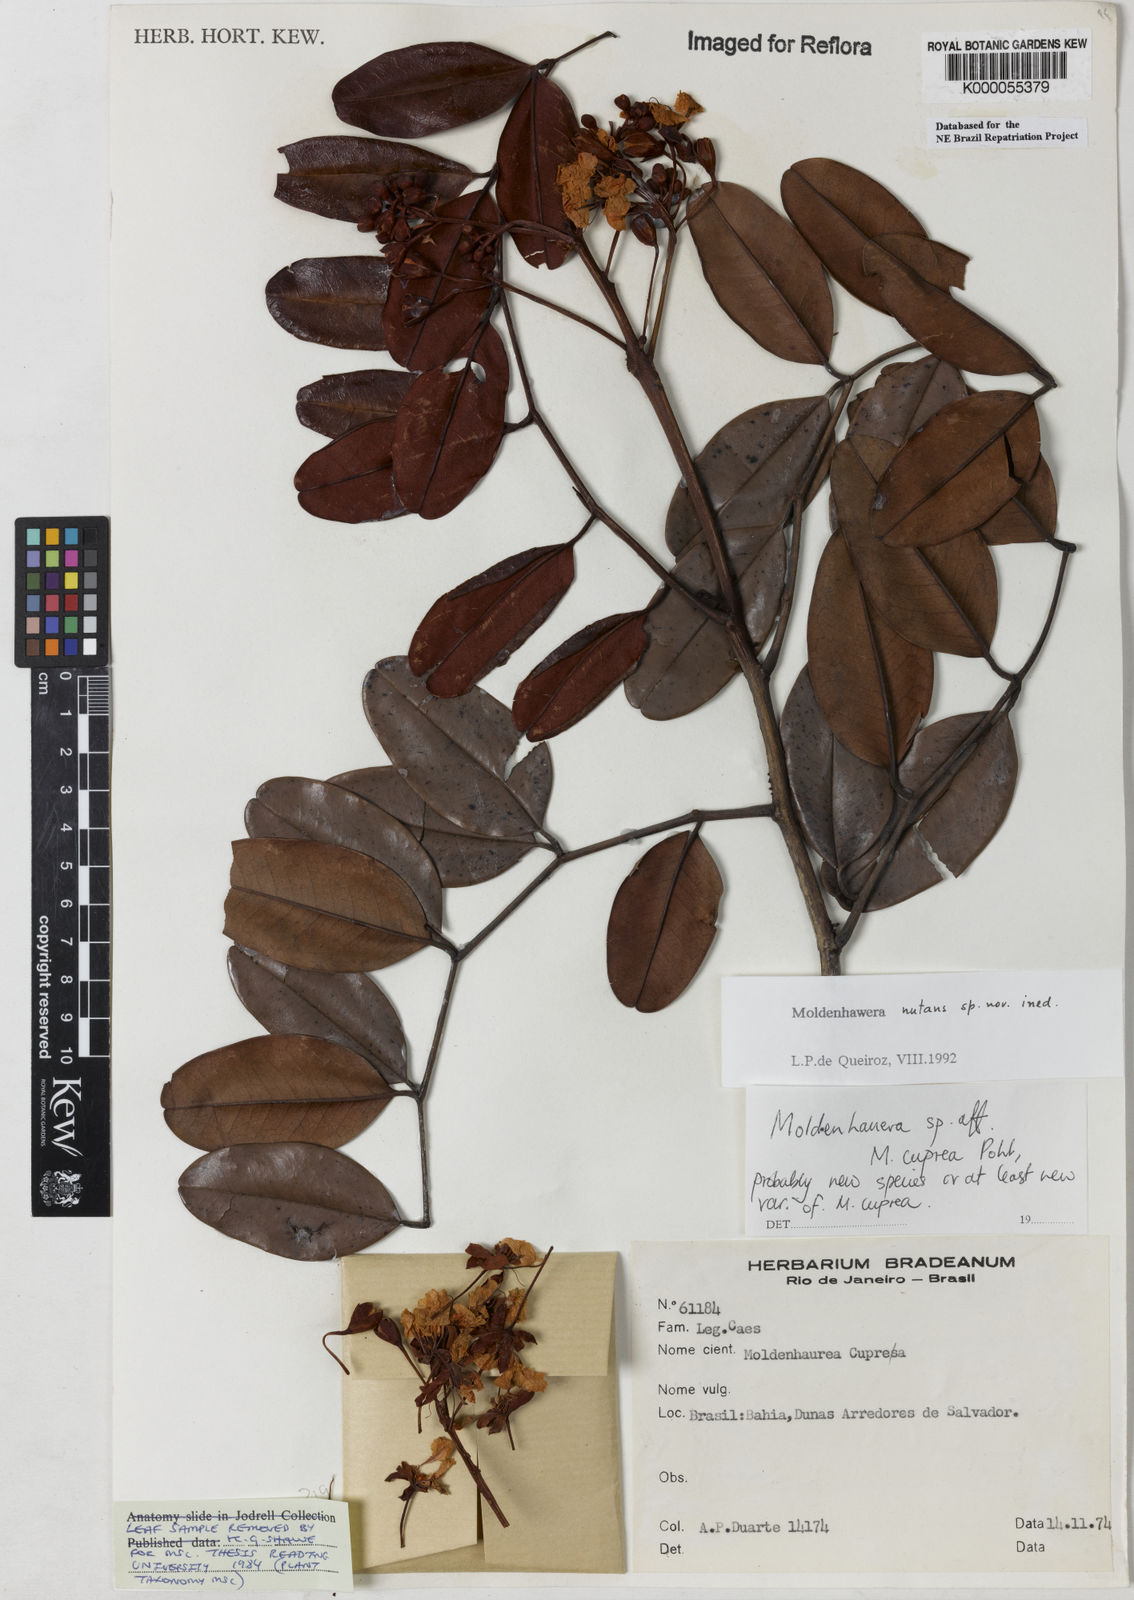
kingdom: Plantae
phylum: Tracheophyta
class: Magnoliopsida
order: Fabales
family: Fabaceae
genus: Moldenhawera
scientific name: Moldenhawera nutans
